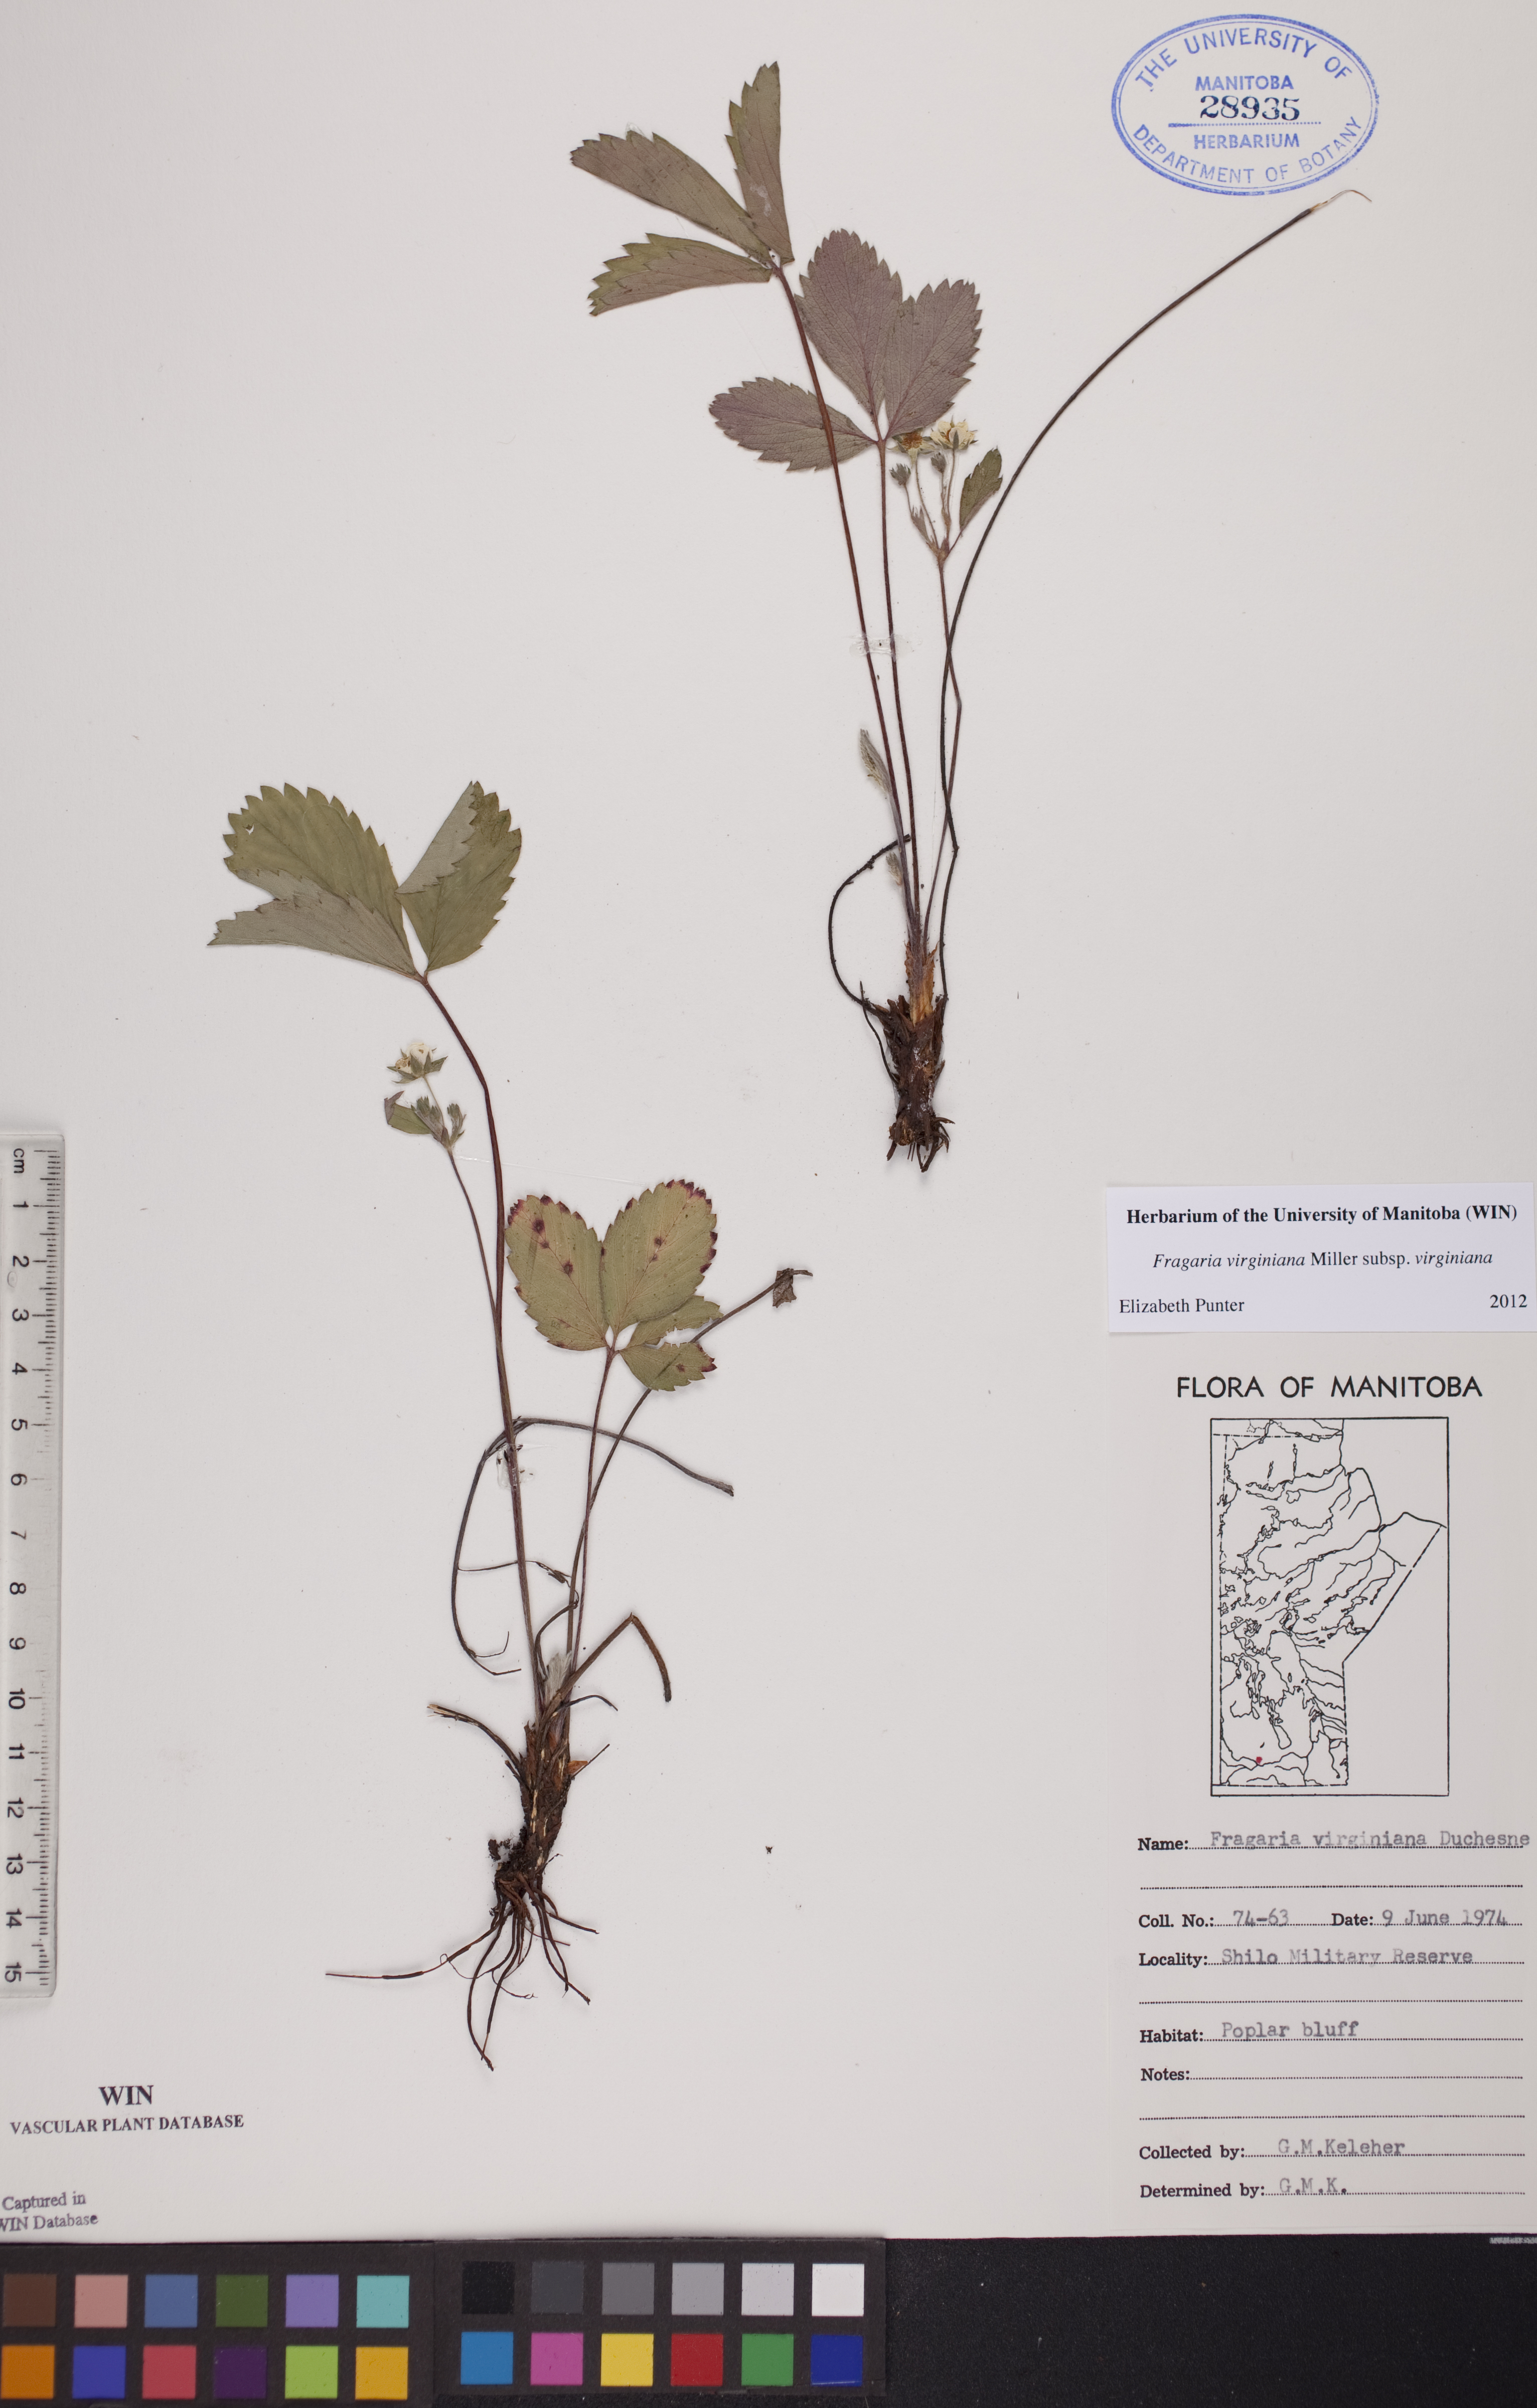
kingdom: Plantae
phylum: Tracheophyta
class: Magnoliopsida
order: Rosales
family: Rosaceae
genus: Fragaria
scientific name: Fragaria virginiana
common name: Thickleaved wild strawberry
